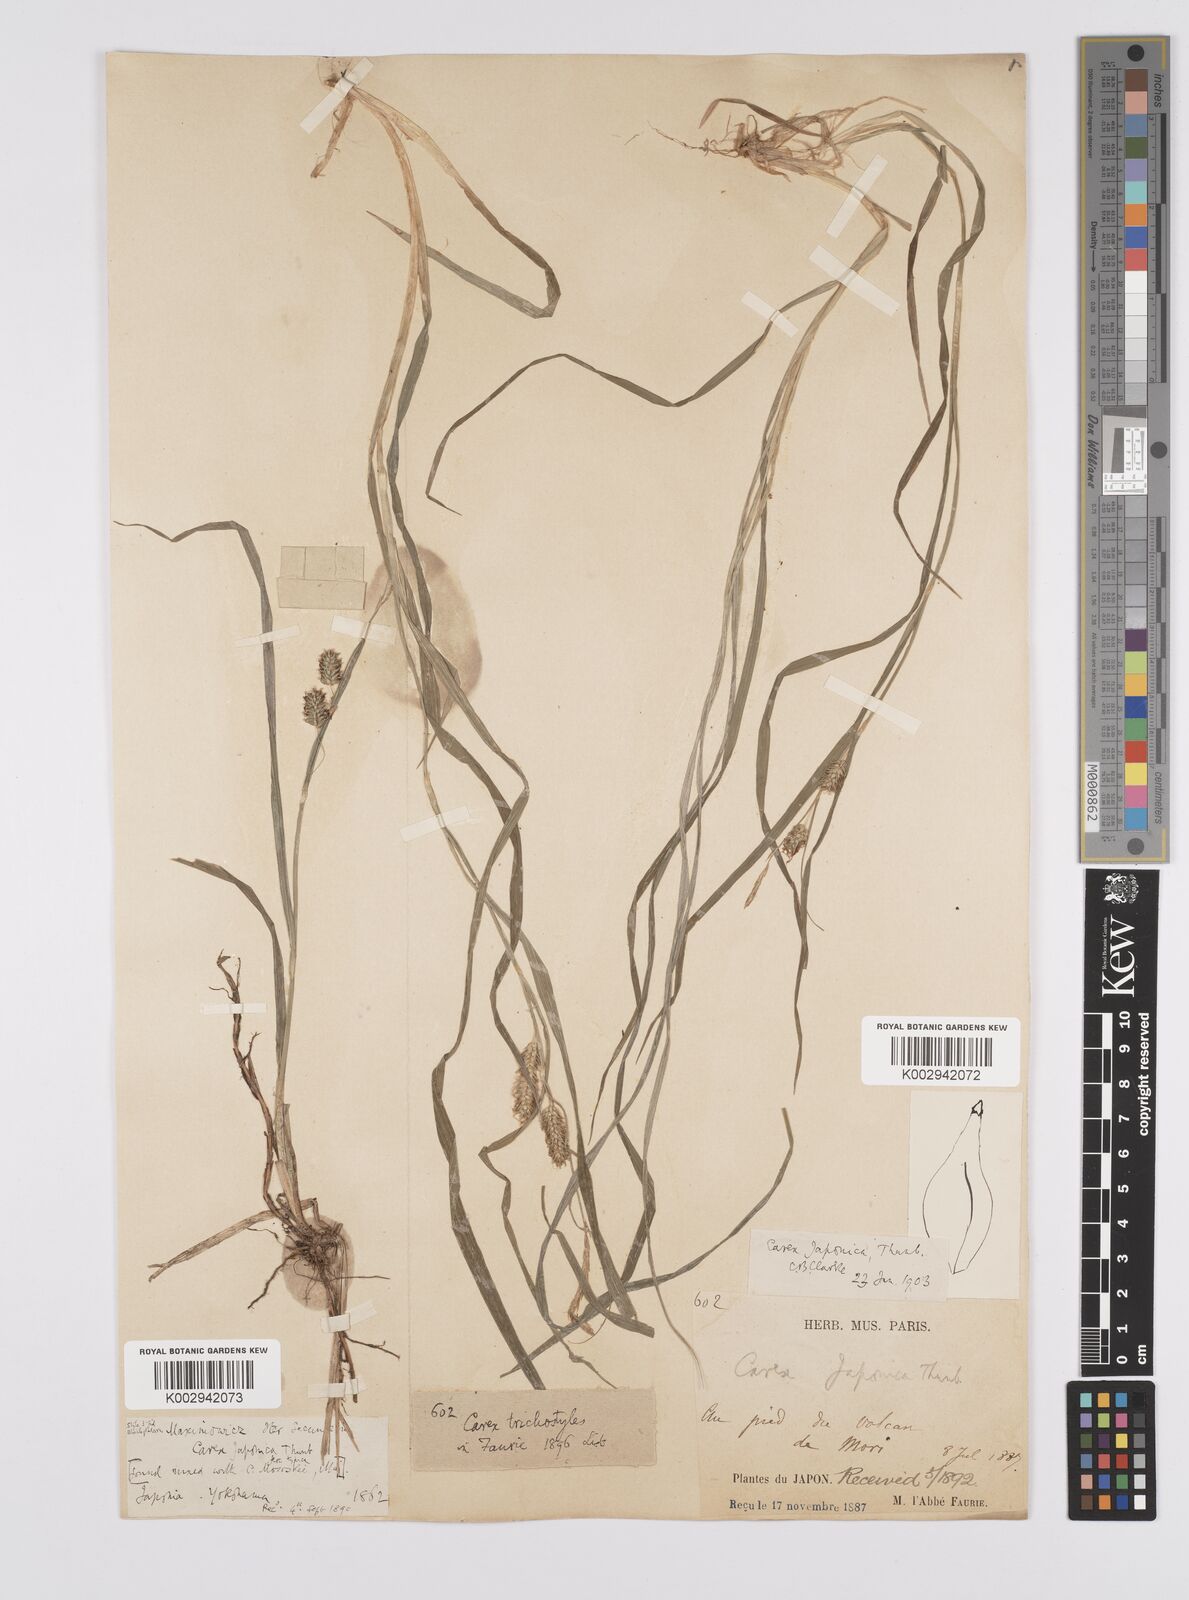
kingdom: Plantae
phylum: Tracheophyta
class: Liliopsida
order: Poales
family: Cyperaceae
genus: Carex
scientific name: Carex japonica
